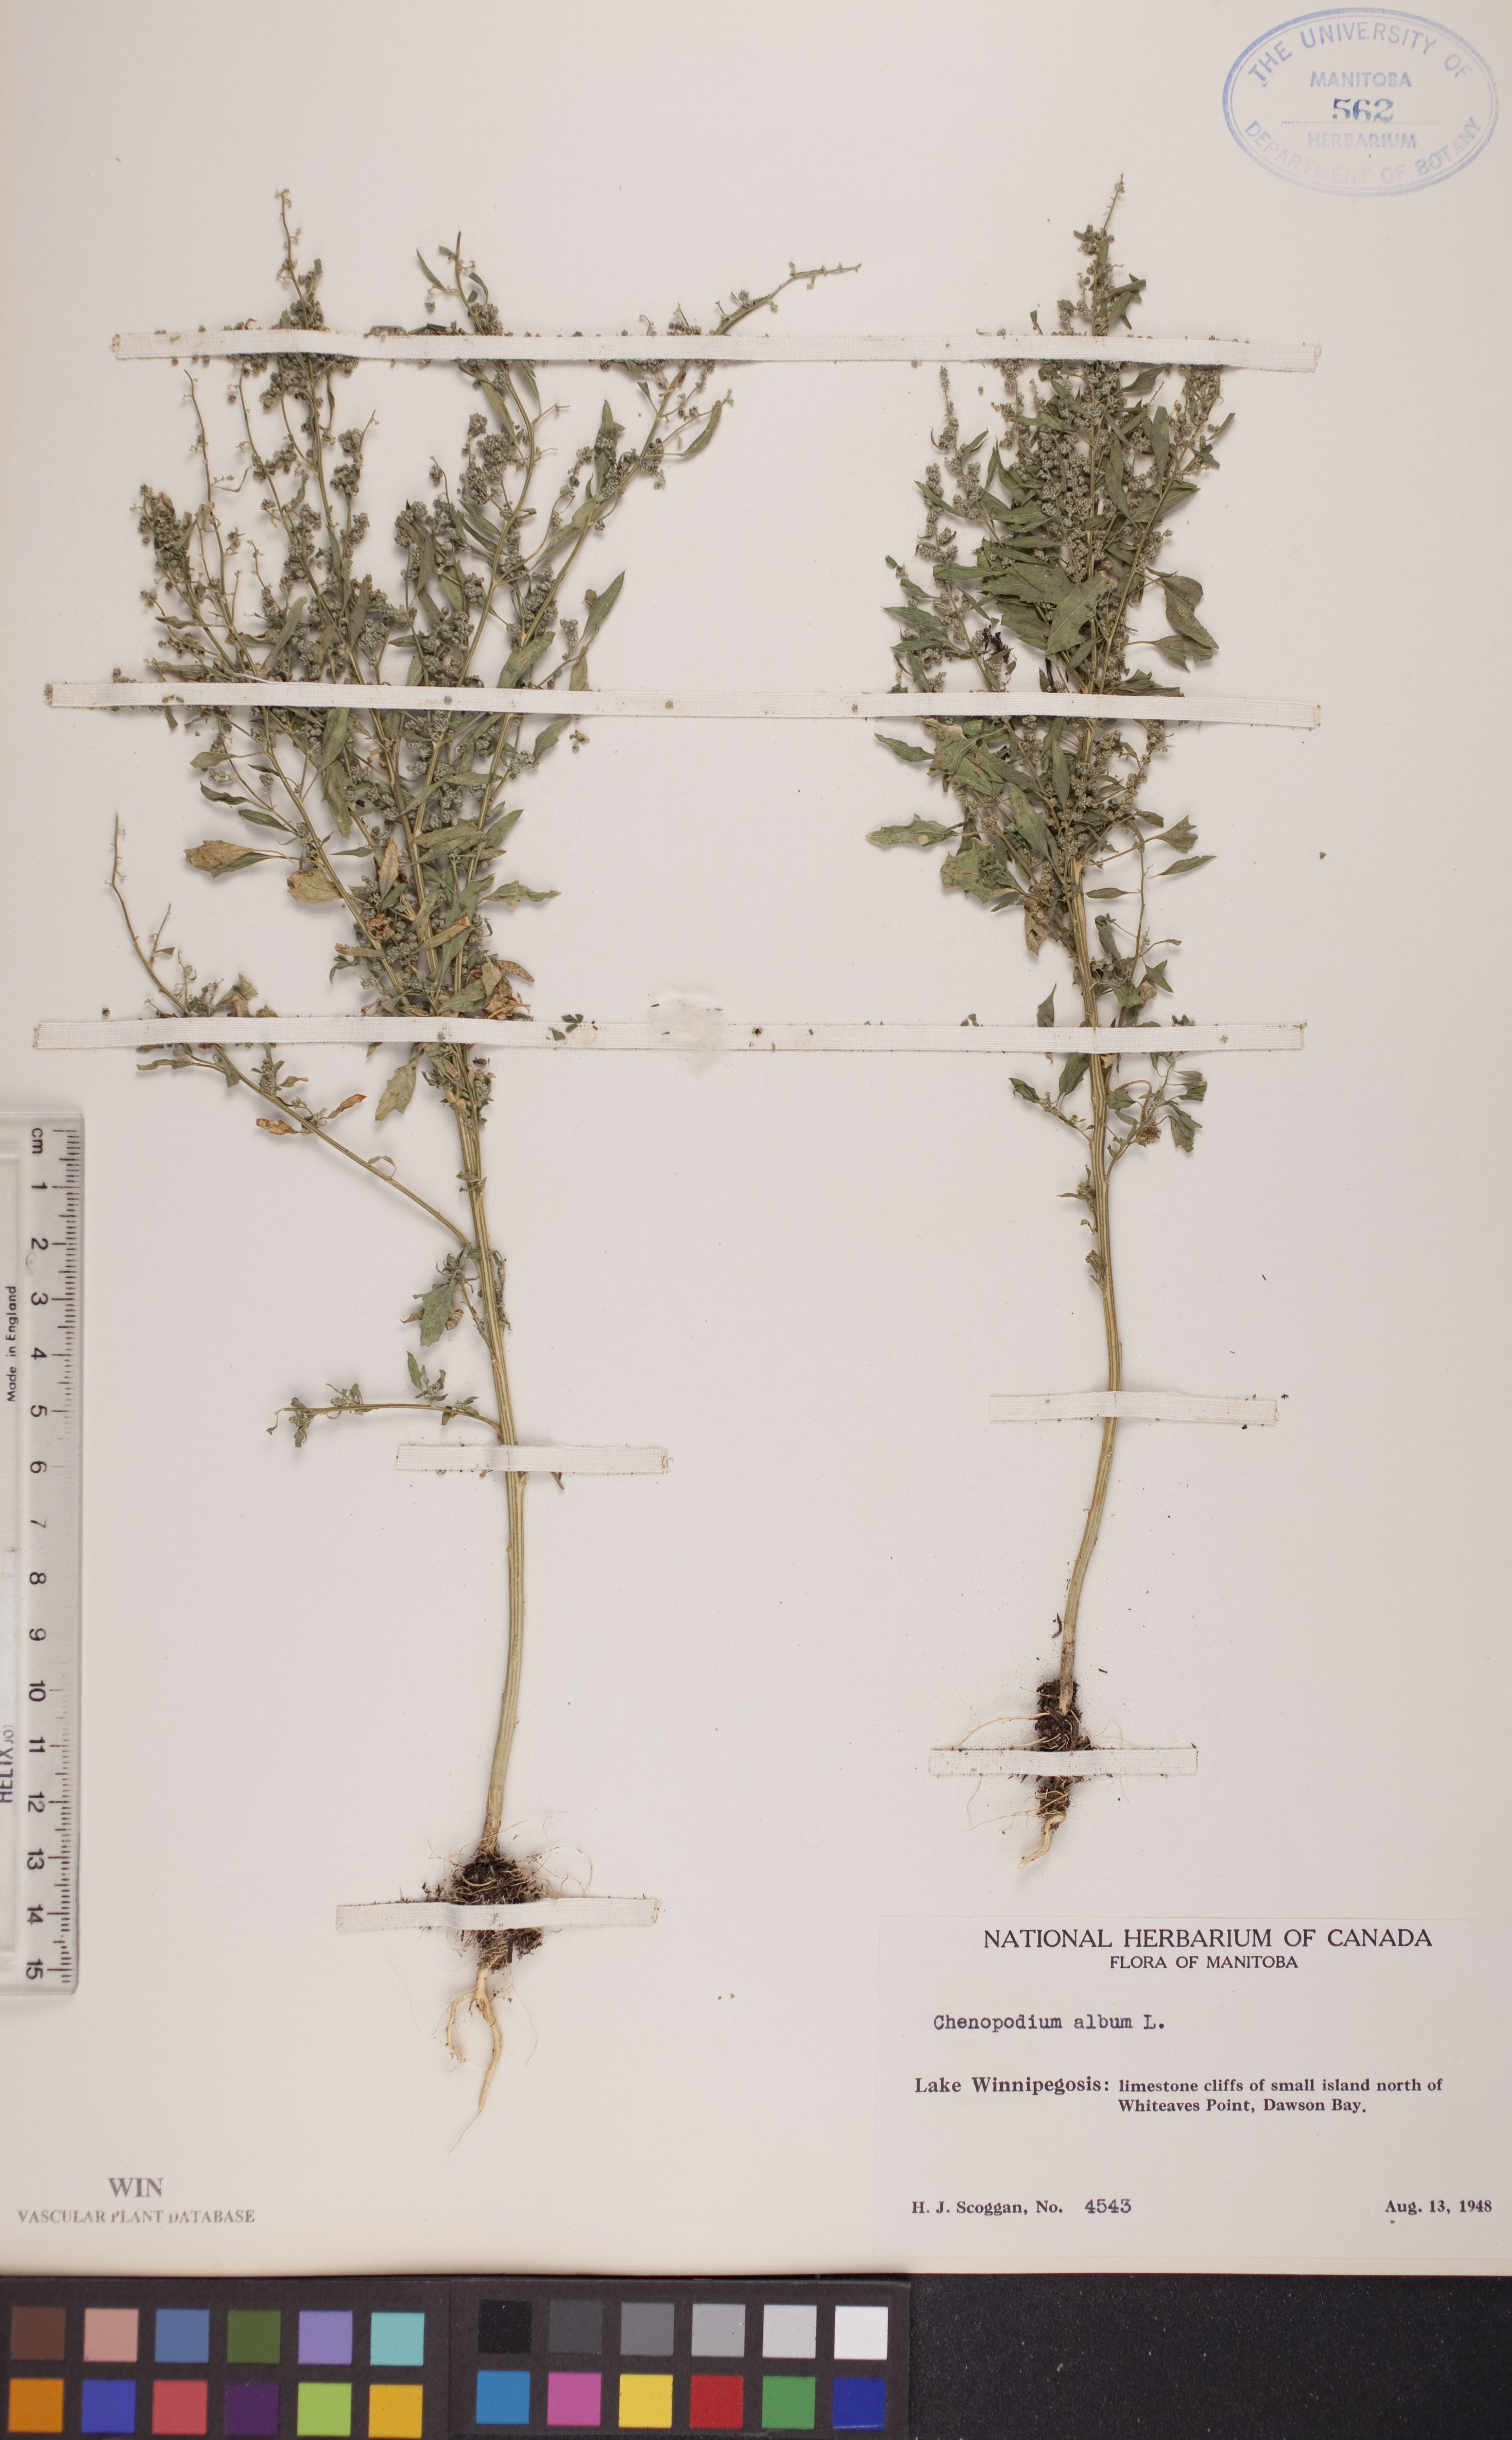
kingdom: Plantae
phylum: Tracheophyta
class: Magnoliopsida
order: Caryophyllales
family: Amaranthaceae
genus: Chenopodium
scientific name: Chenopodium album
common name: Fat-hen
